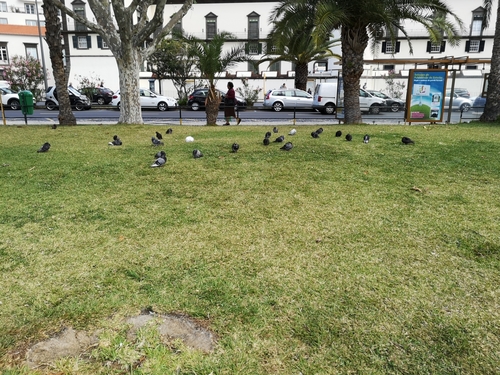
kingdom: Animalia
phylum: Chordata
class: Aves
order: Columbiformes
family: Columbidae
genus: Columba
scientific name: Columba livia
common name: Rock pigeon
